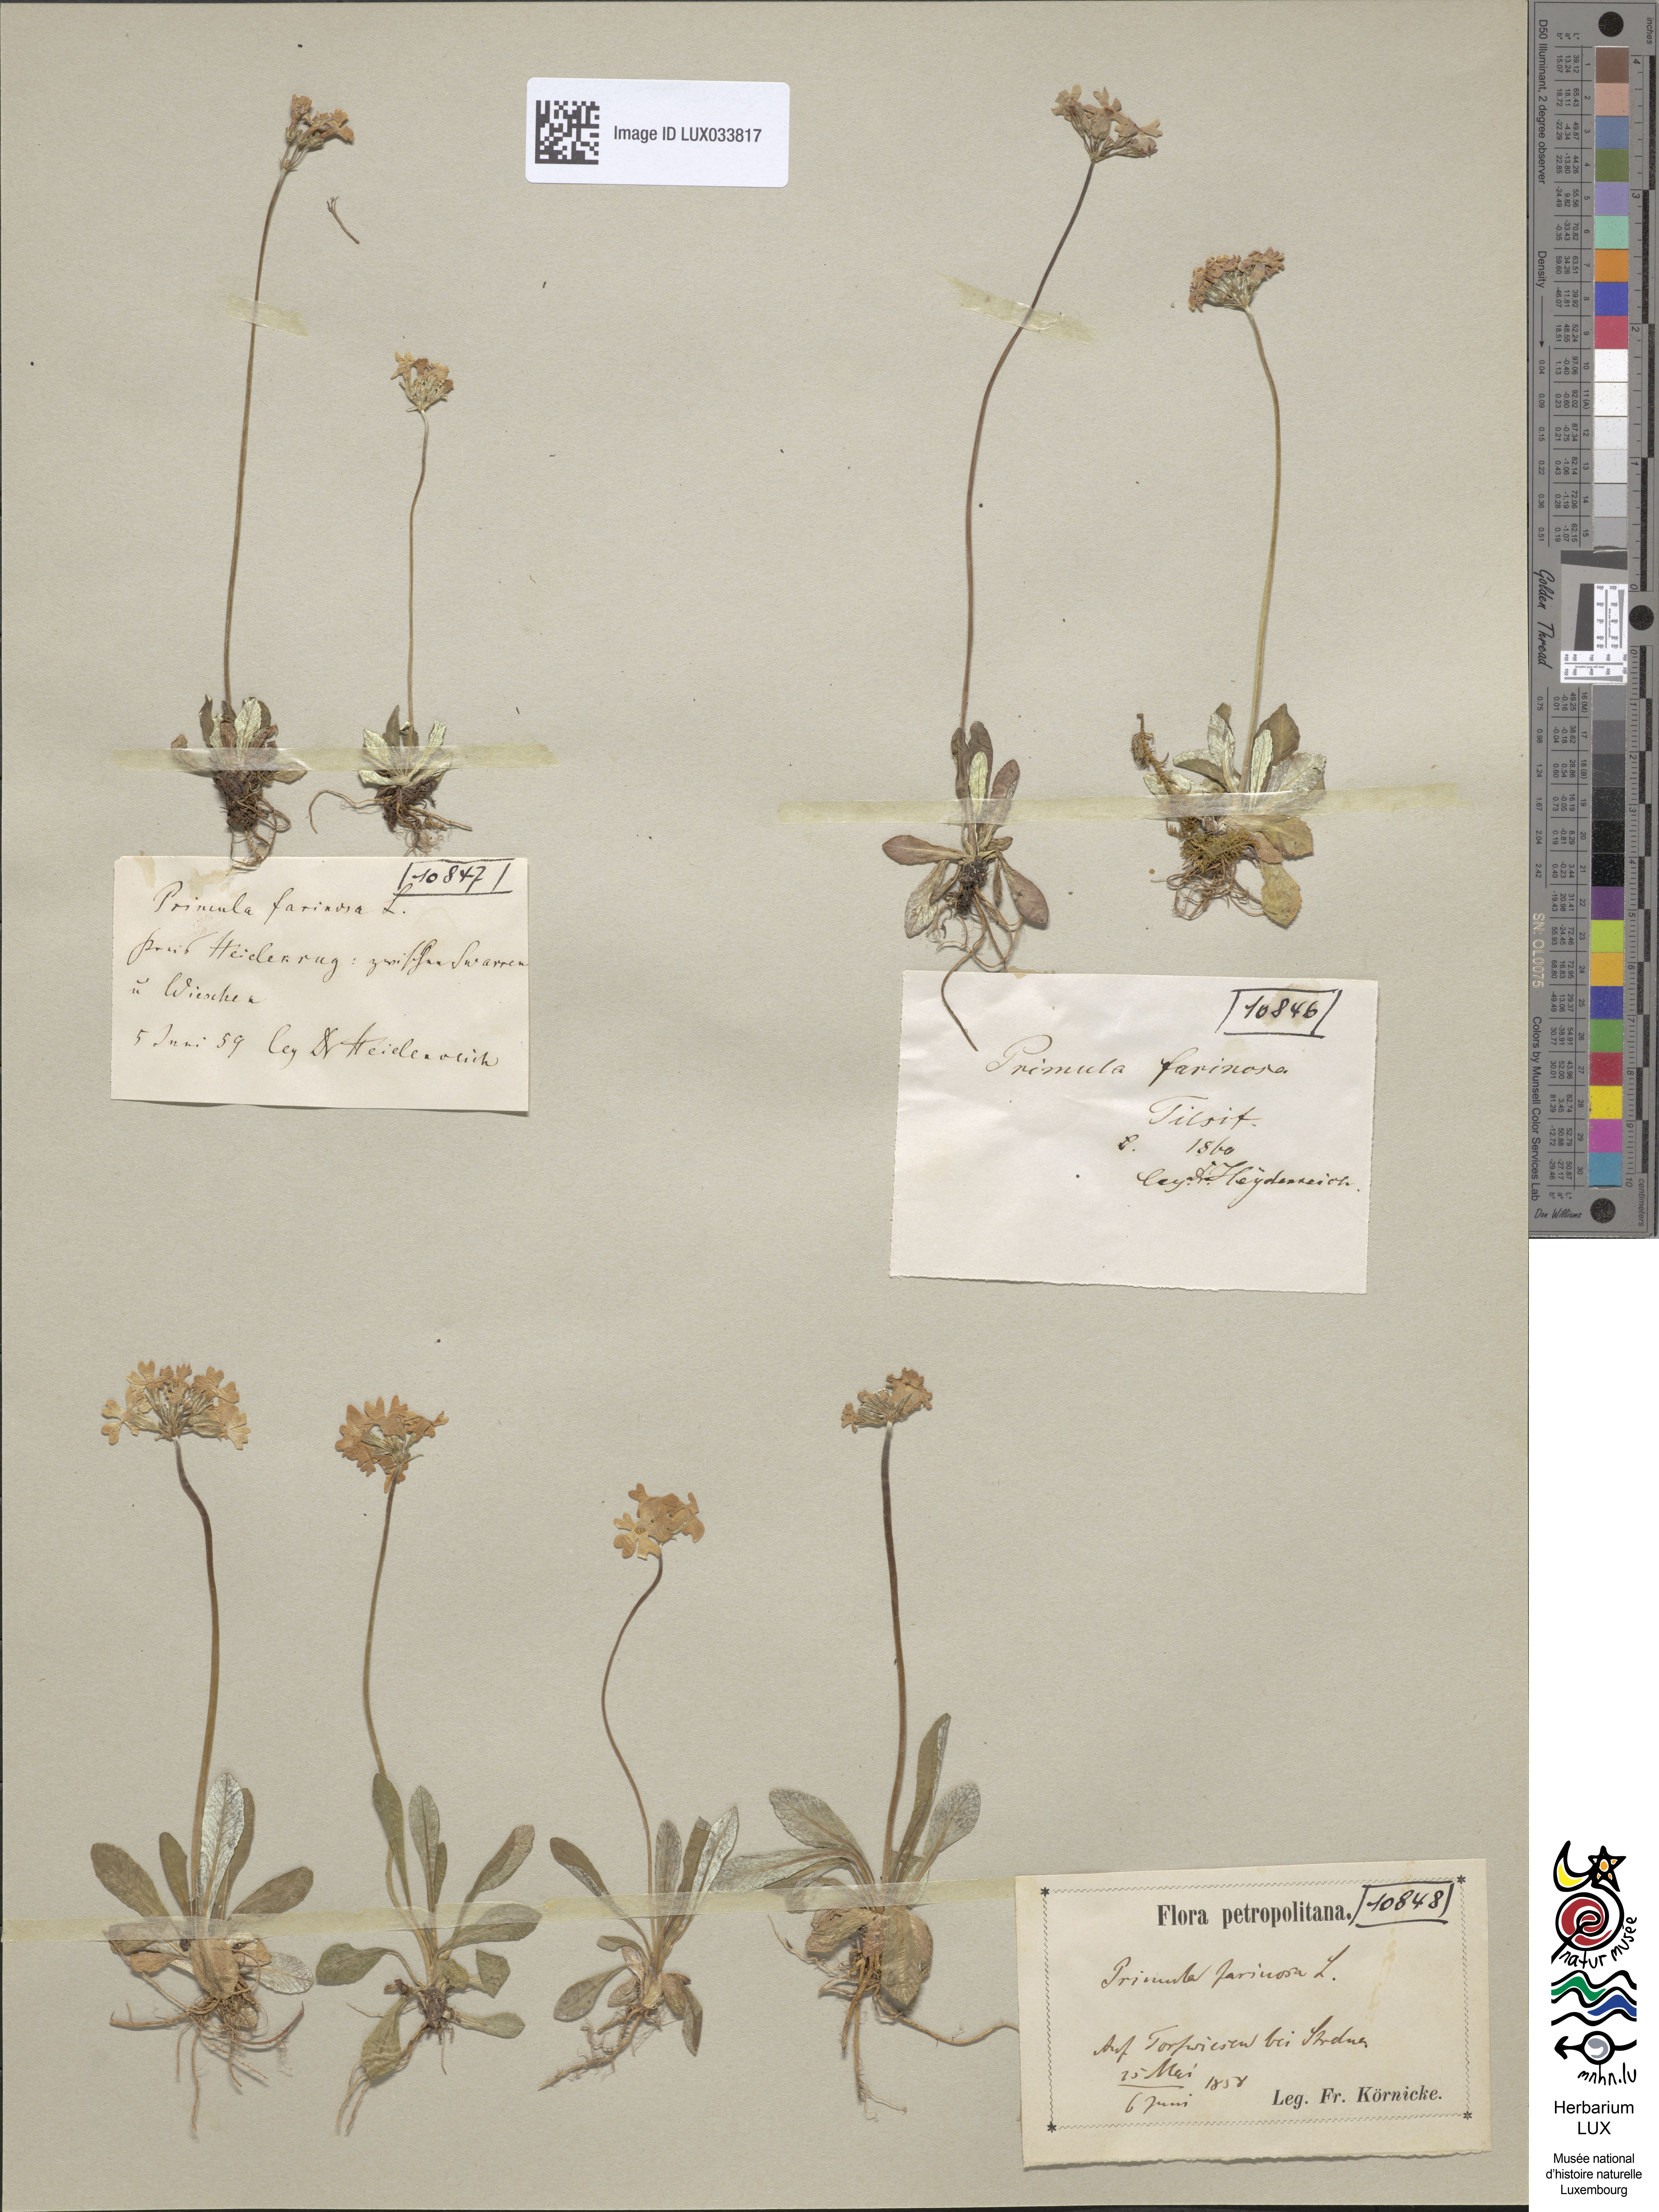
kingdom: Plantae
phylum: Tracheophyta
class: Magnoliopsida
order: Ericales
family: Primulaceae
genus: Primula
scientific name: Primula farinosa
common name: Bird's-eye primrose
